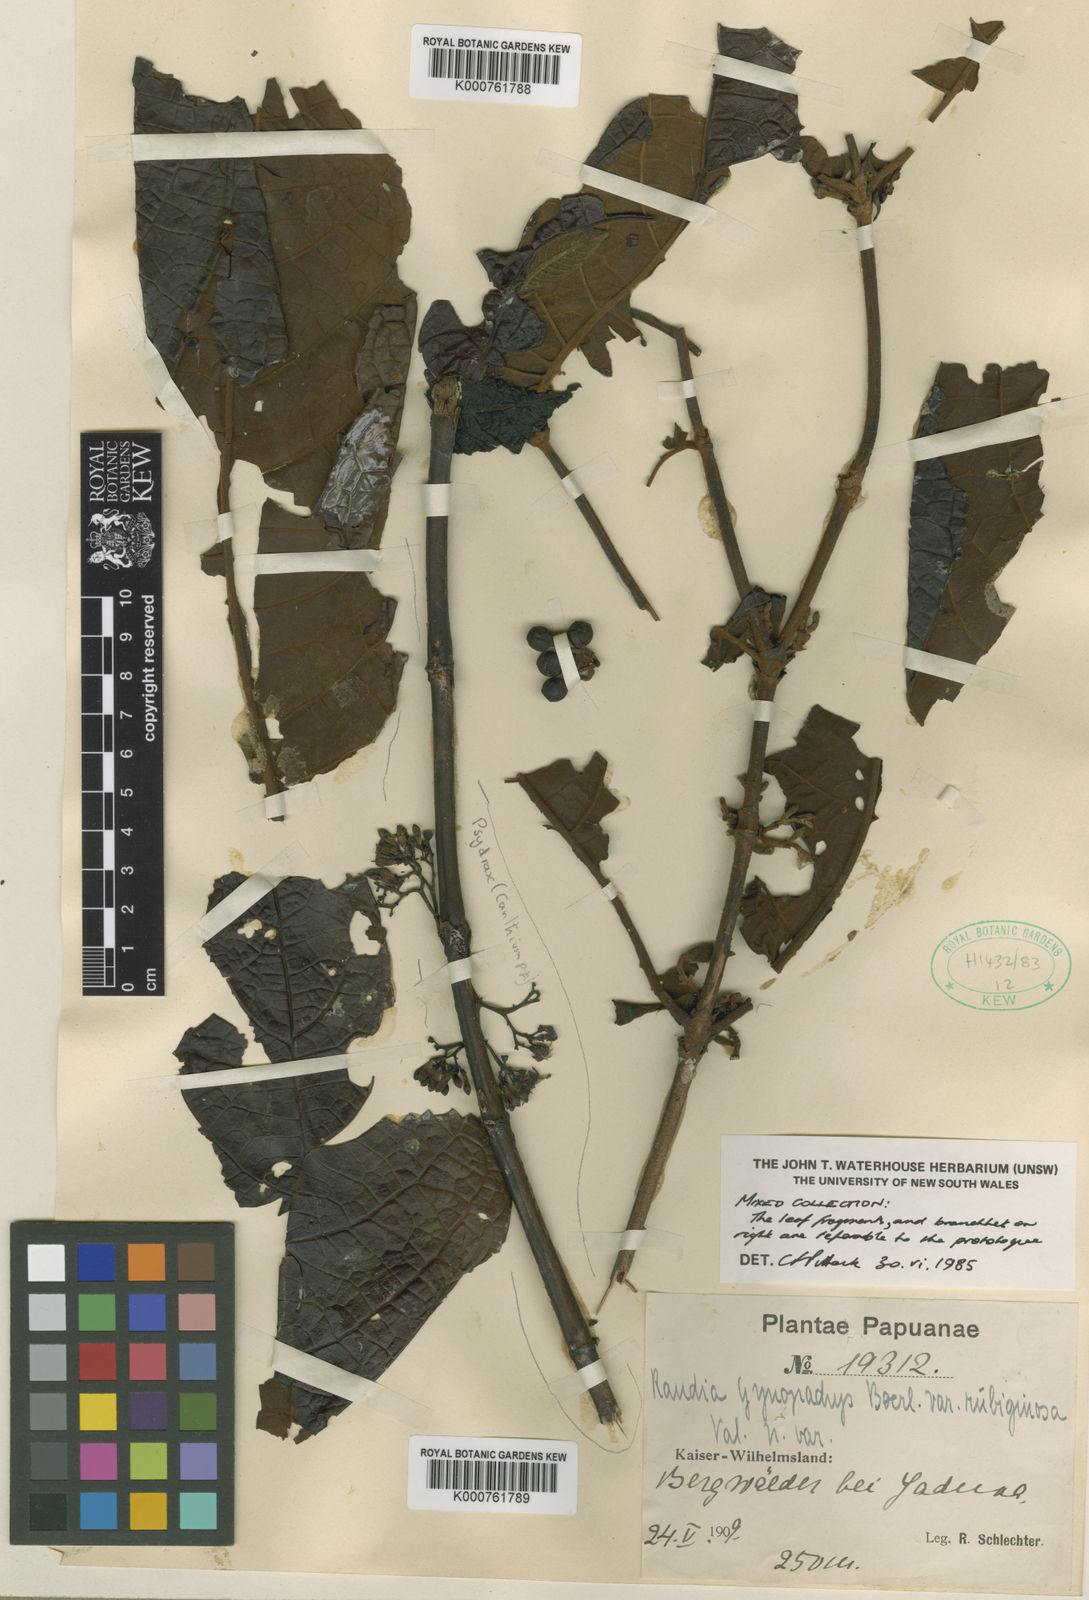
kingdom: Plantae
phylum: Tracheophyta
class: Magnoliopsida
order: Gentianales
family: Rubiaceae
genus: Aidia
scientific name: Aidia glabra
